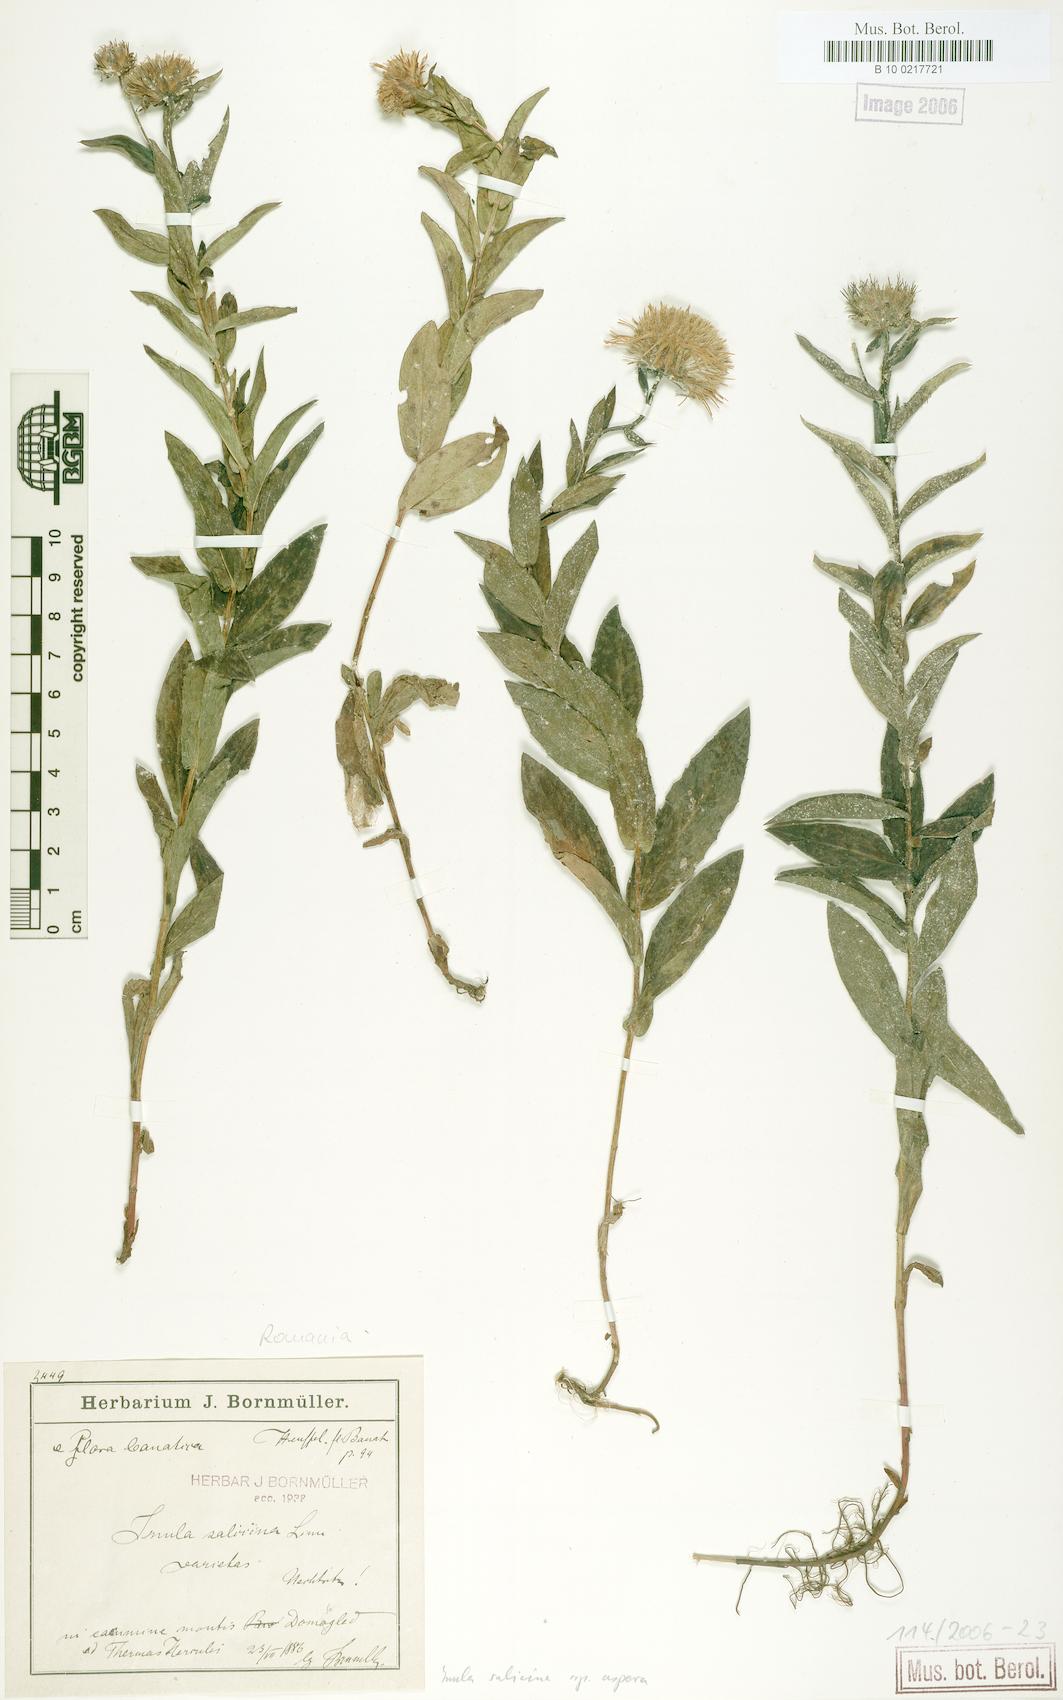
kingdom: Plantae
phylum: Tracheophyta
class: Magnoliopsida
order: Asterales
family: Asteraceae
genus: Pentanema
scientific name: Pentanema salicinum
